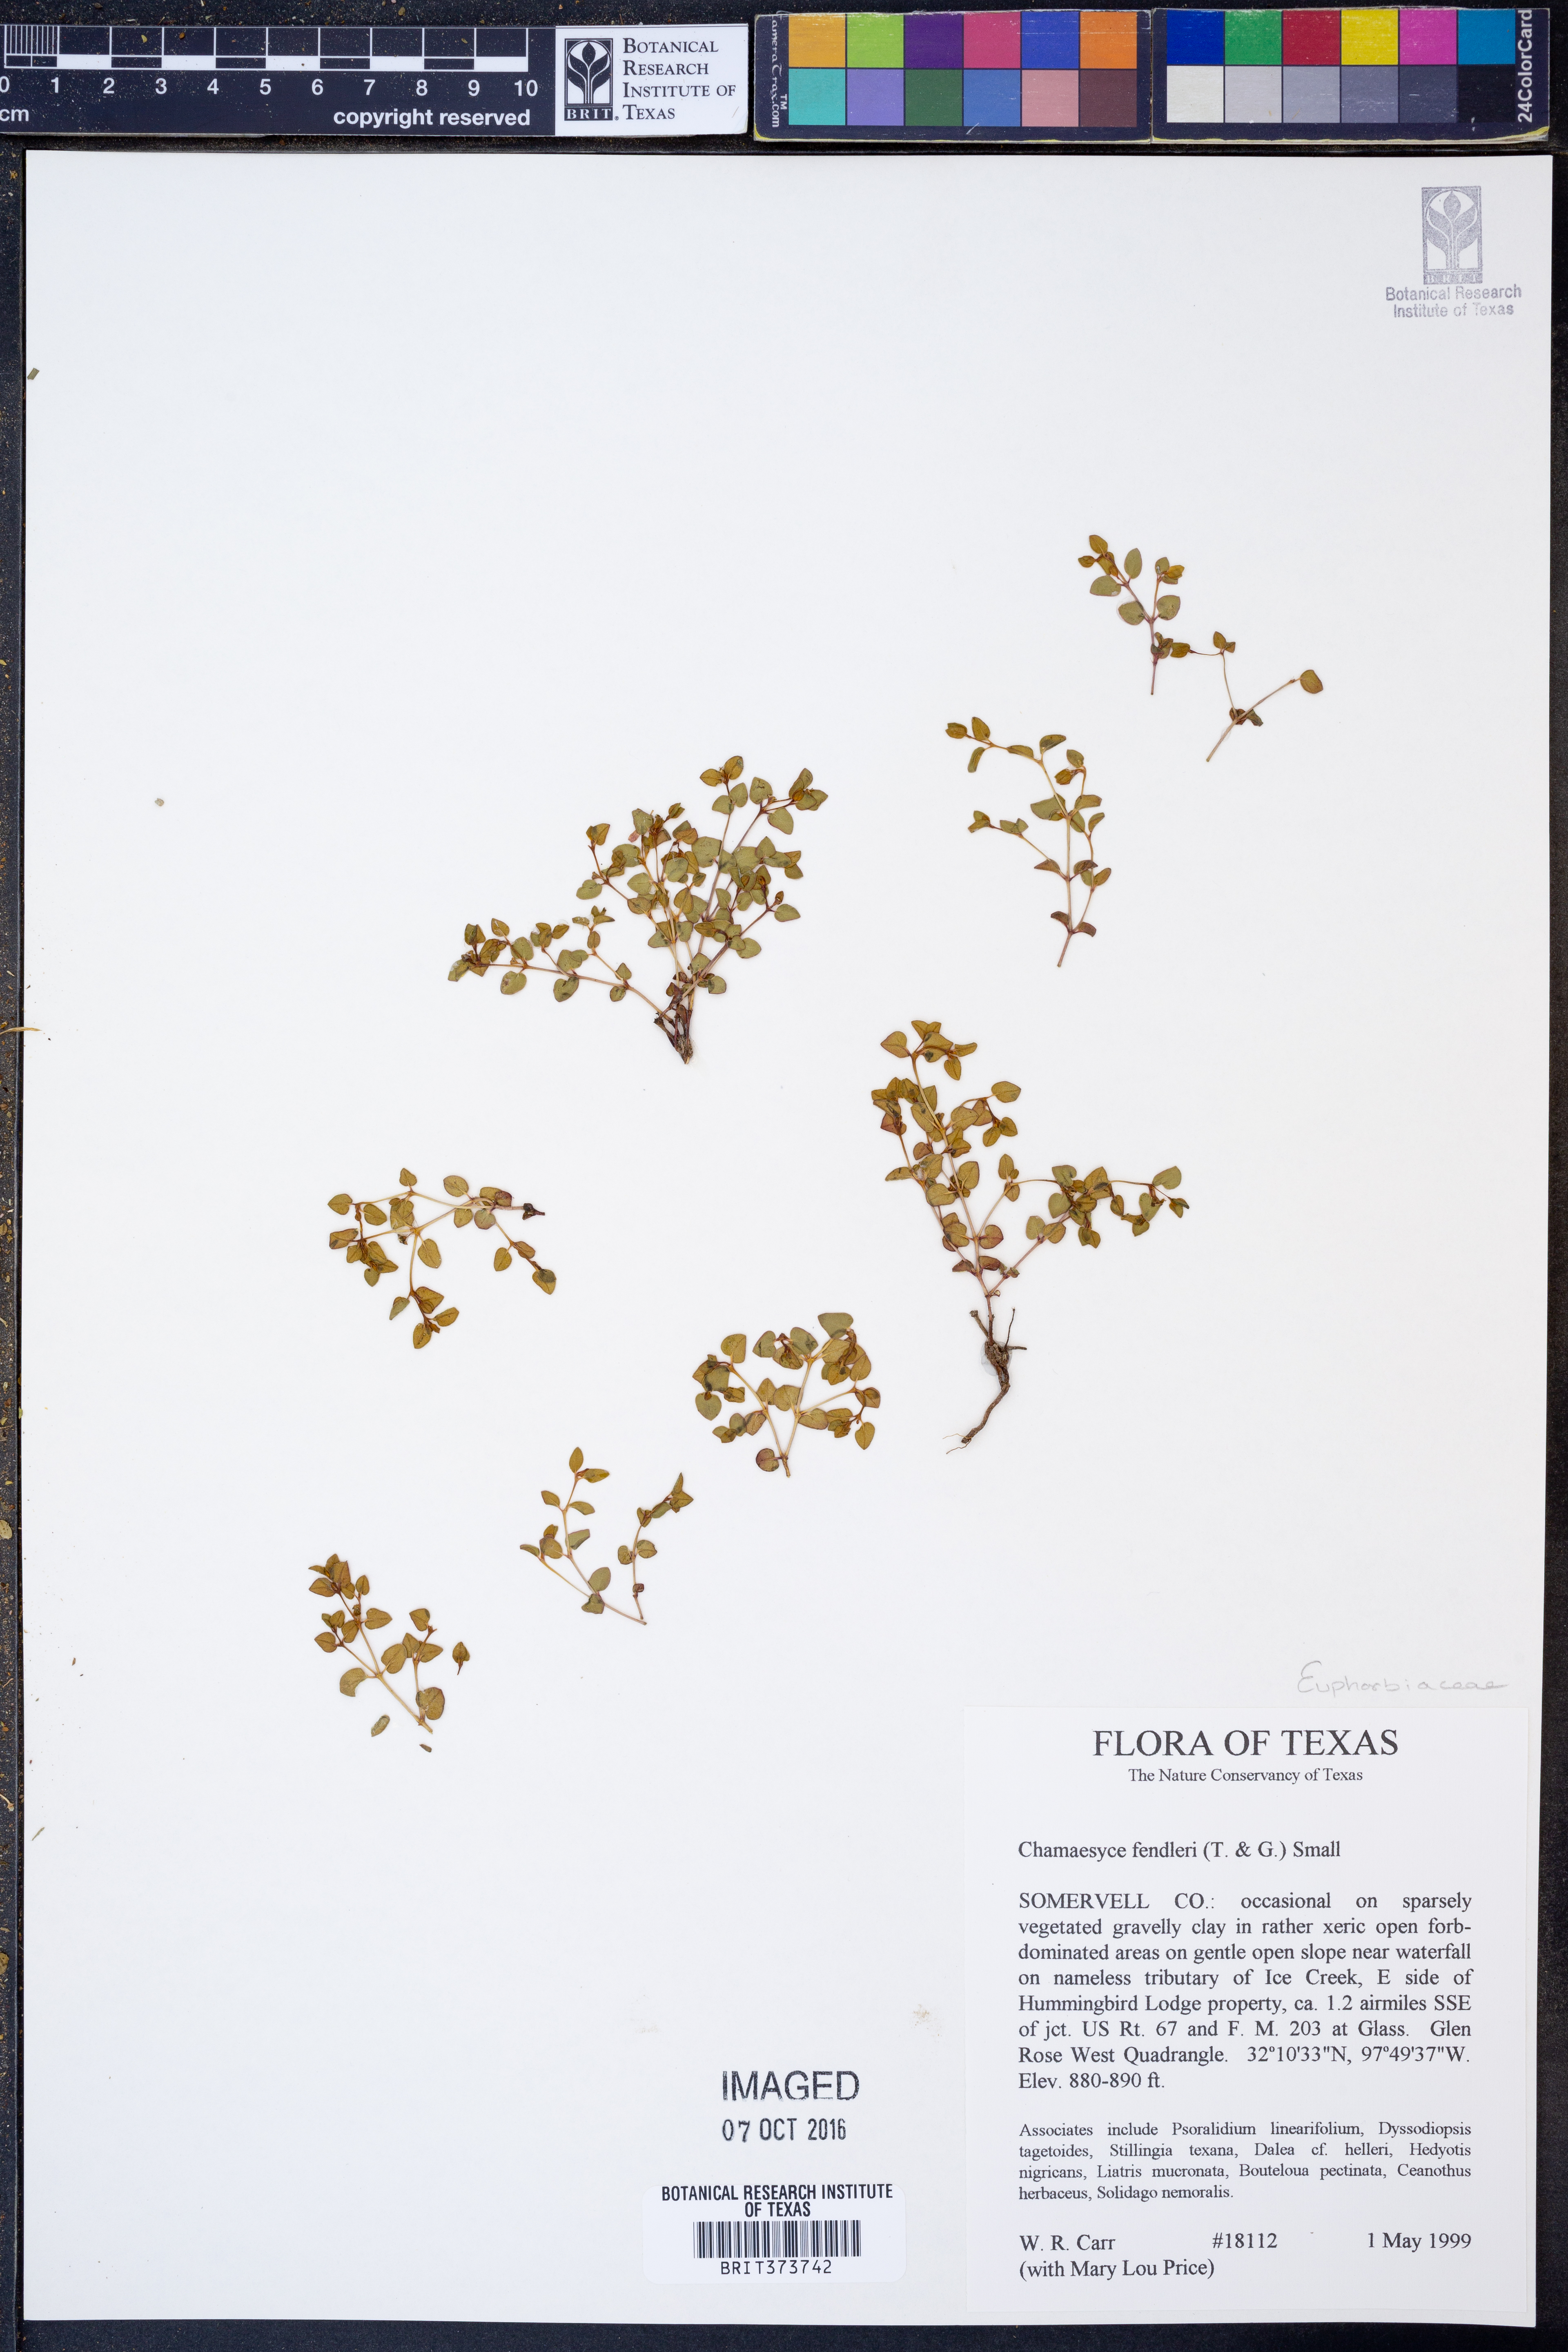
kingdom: Plantae
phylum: Tracheophyta
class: Magnoliopsida
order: Malpighiales
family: Euphorbiaceae
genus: Euphorbia
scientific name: Euphorbia fendleri
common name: Fendler's euphorbia
